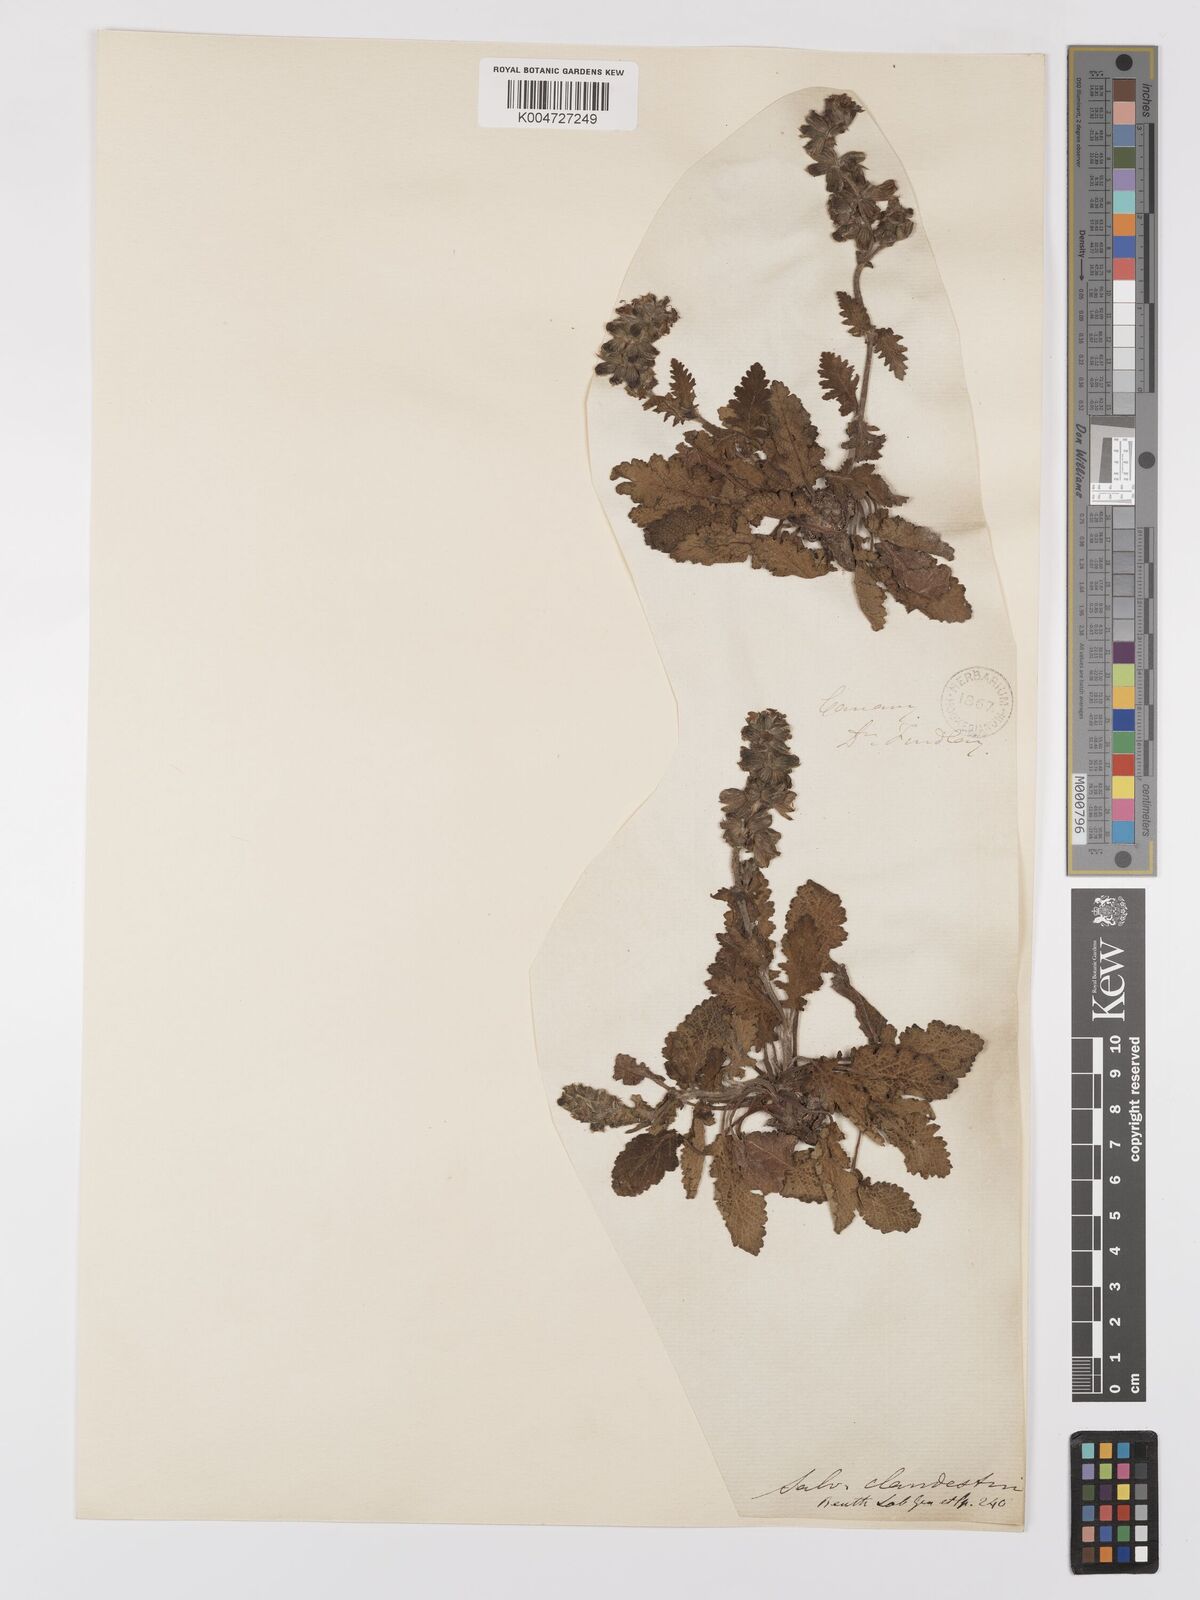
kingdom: Plantae
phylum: Tracheophyta
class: Magnoliopsida
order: Lamiales
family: Lamiaceae
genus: Salvia
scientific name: Salvia verbenaca
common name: Wild clary
